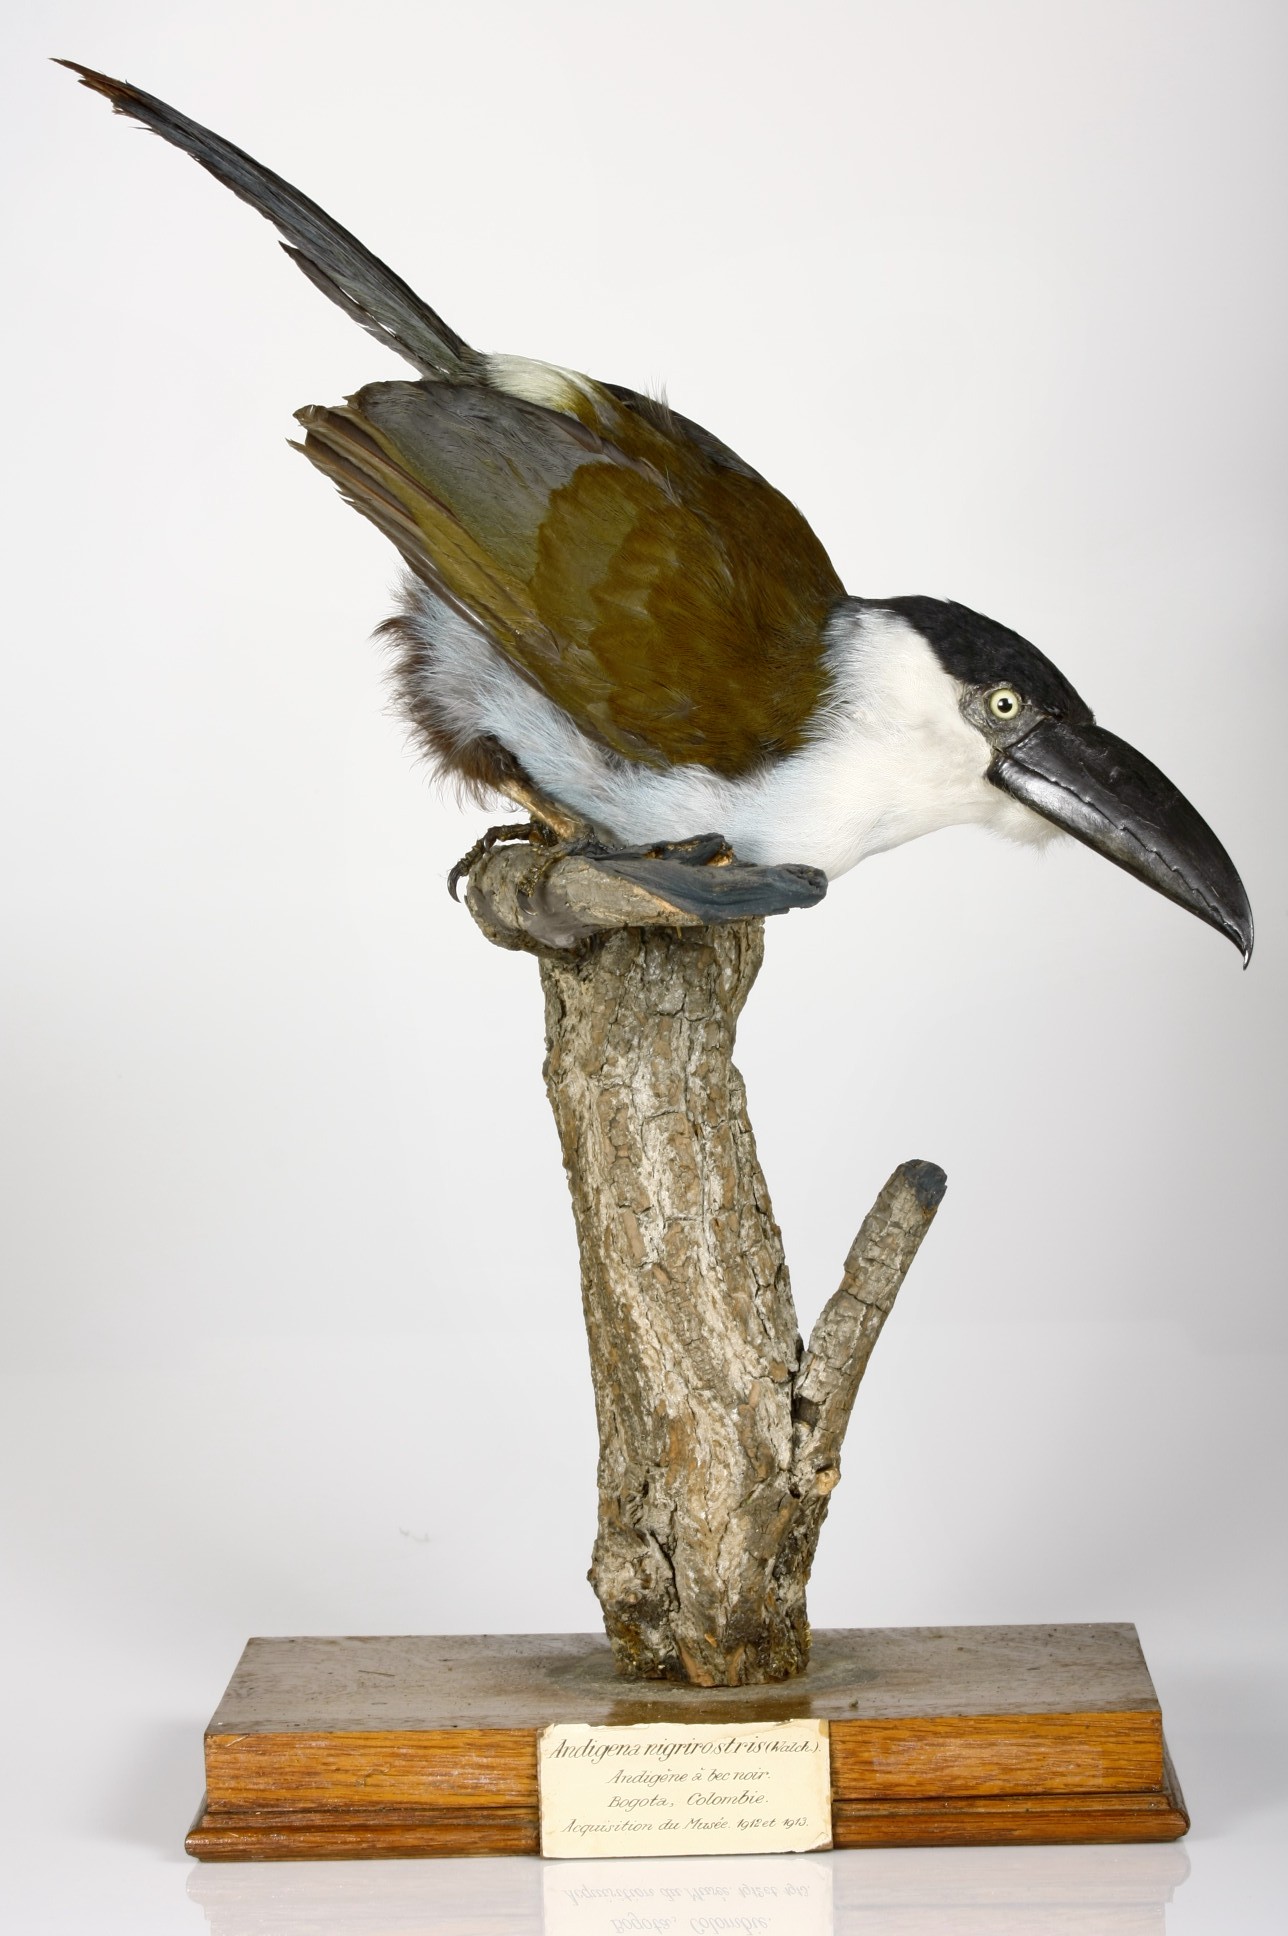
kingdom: Animalia
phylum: Chordata
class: Aves
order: Piciformes
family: Ramphastidae
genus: Andigena
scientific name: Andigena nigrirostris
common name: Black-billed mountain toucan
